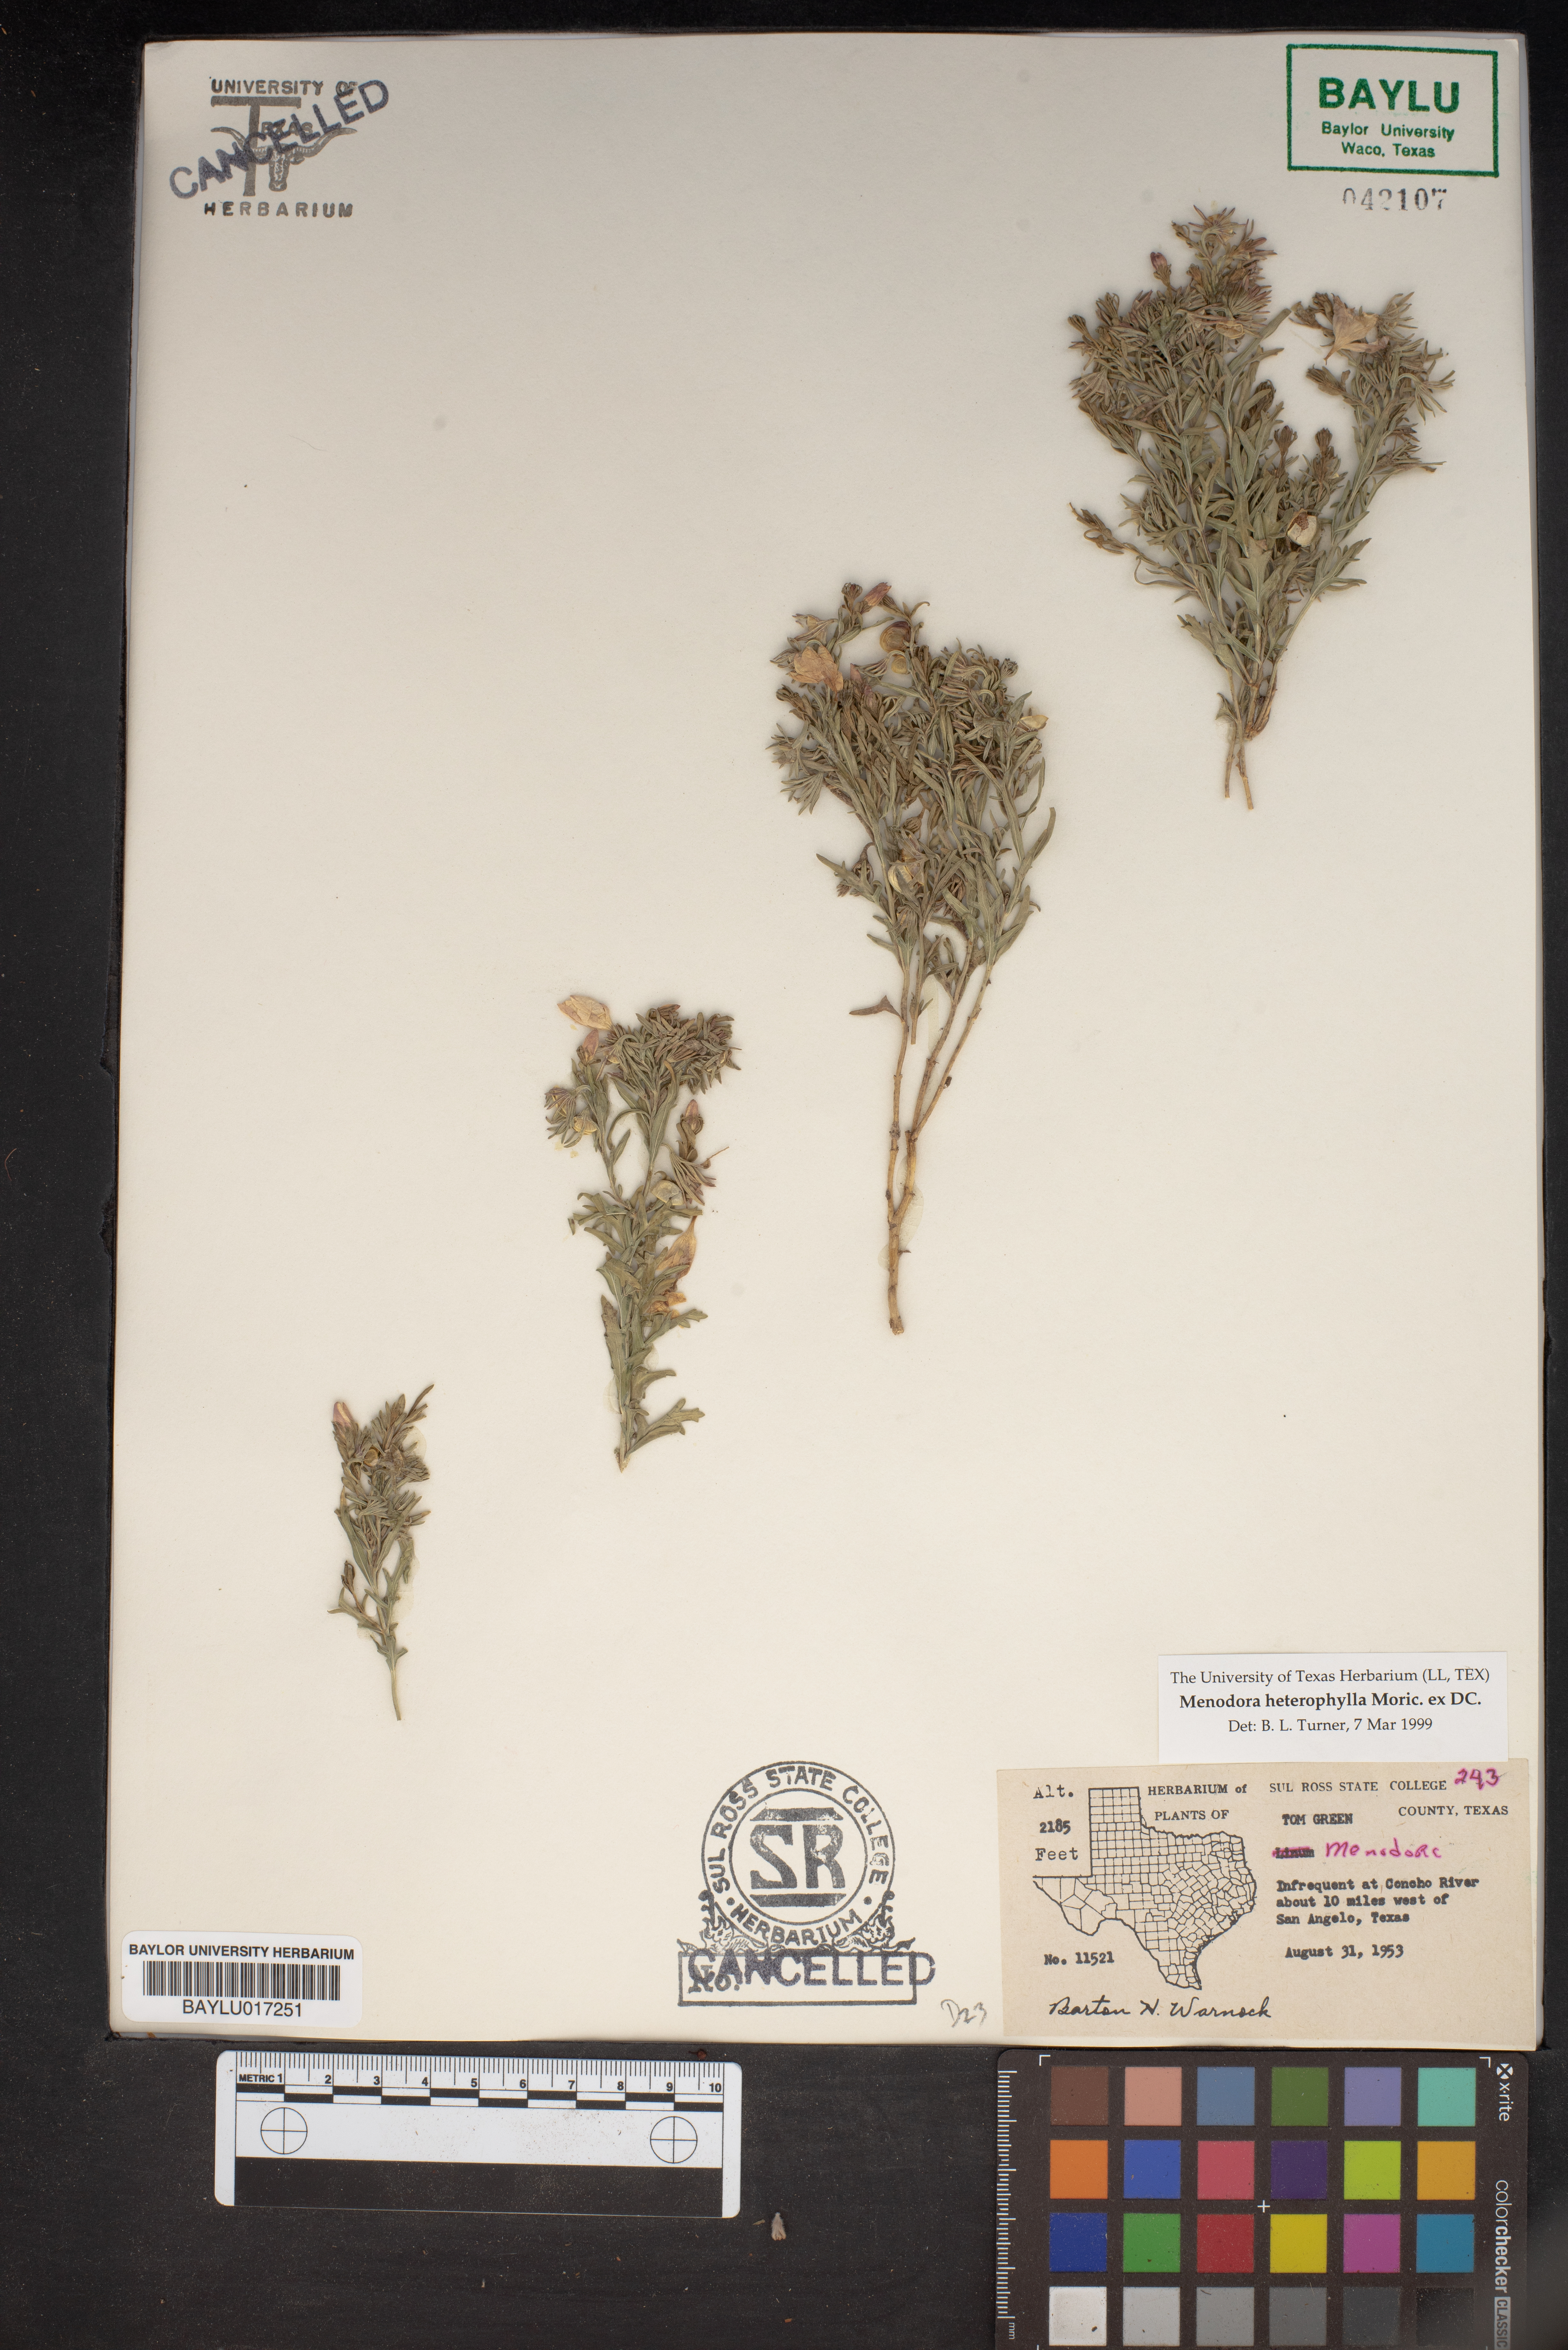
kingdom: Plantae
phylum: Tracheophyta
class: Magnoliopsida
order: Lamiales
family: Oleaceae
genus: Menodora
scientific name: Menodora heterophylla
